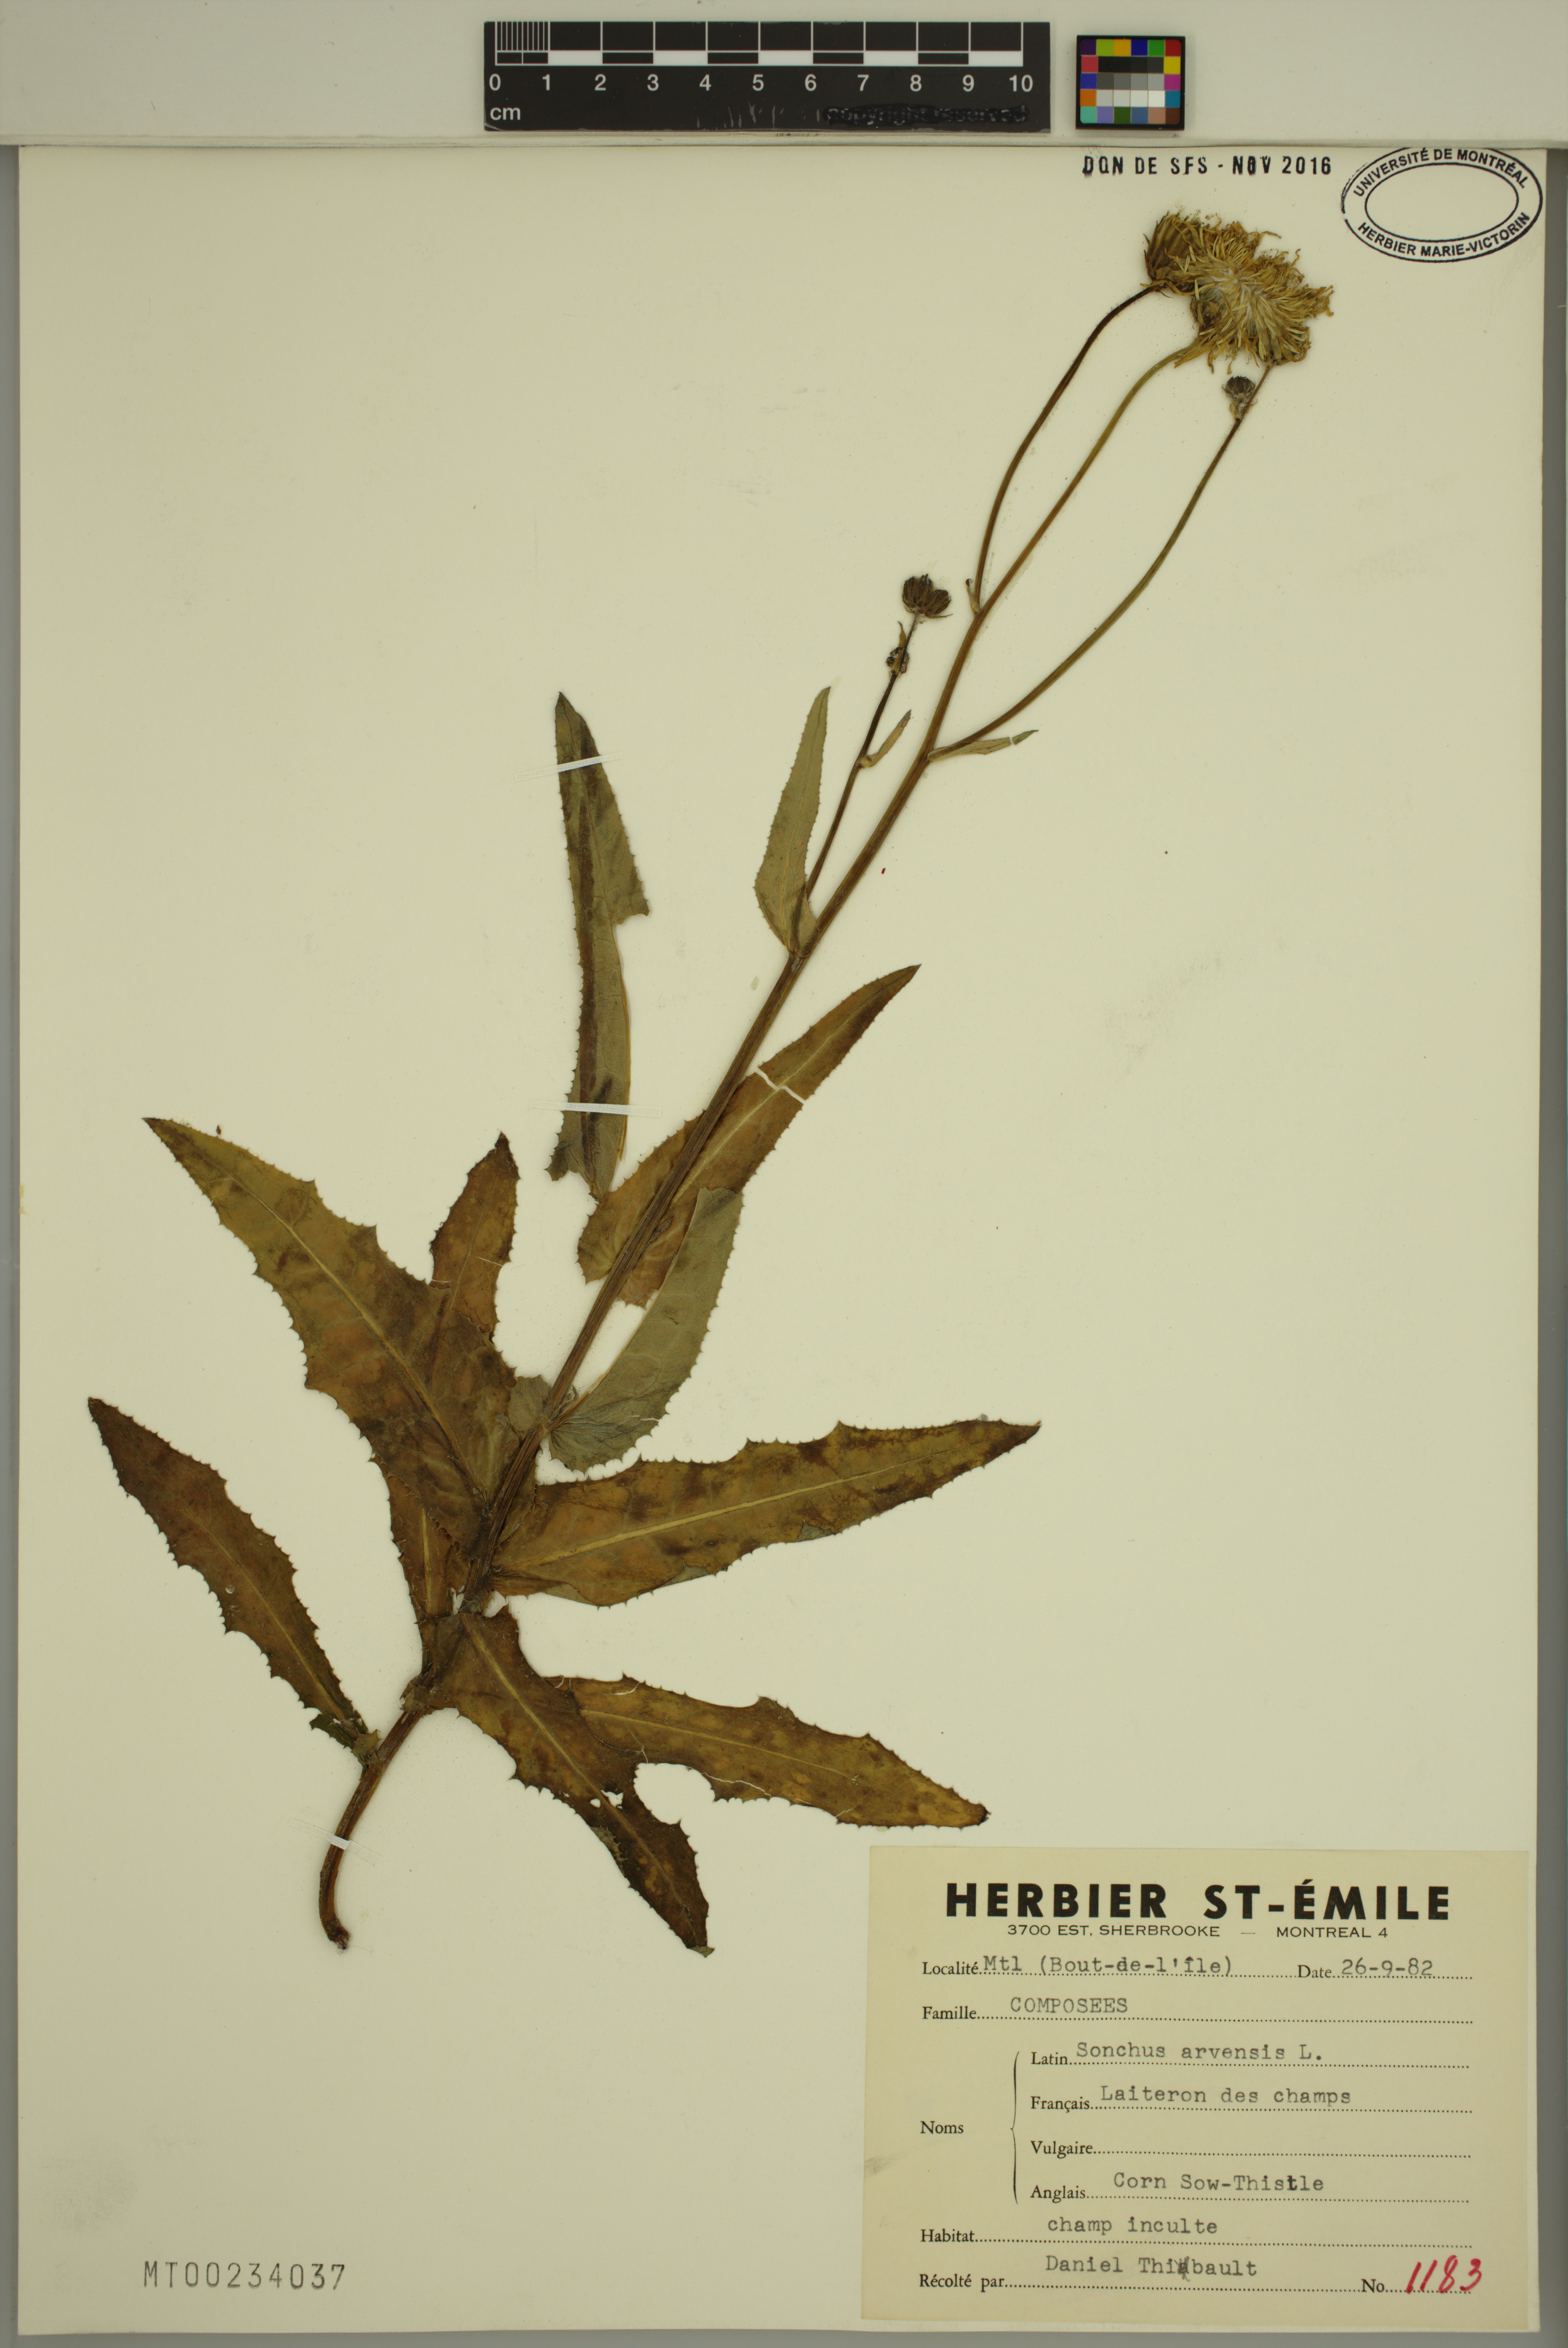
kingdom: Plantae
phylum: Tracheophyta
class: Magnoliopsida
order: Asterales
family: Asteraceae
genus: Sonchus
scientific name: Sonchus arvensis
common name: Perennial sow-thistle
